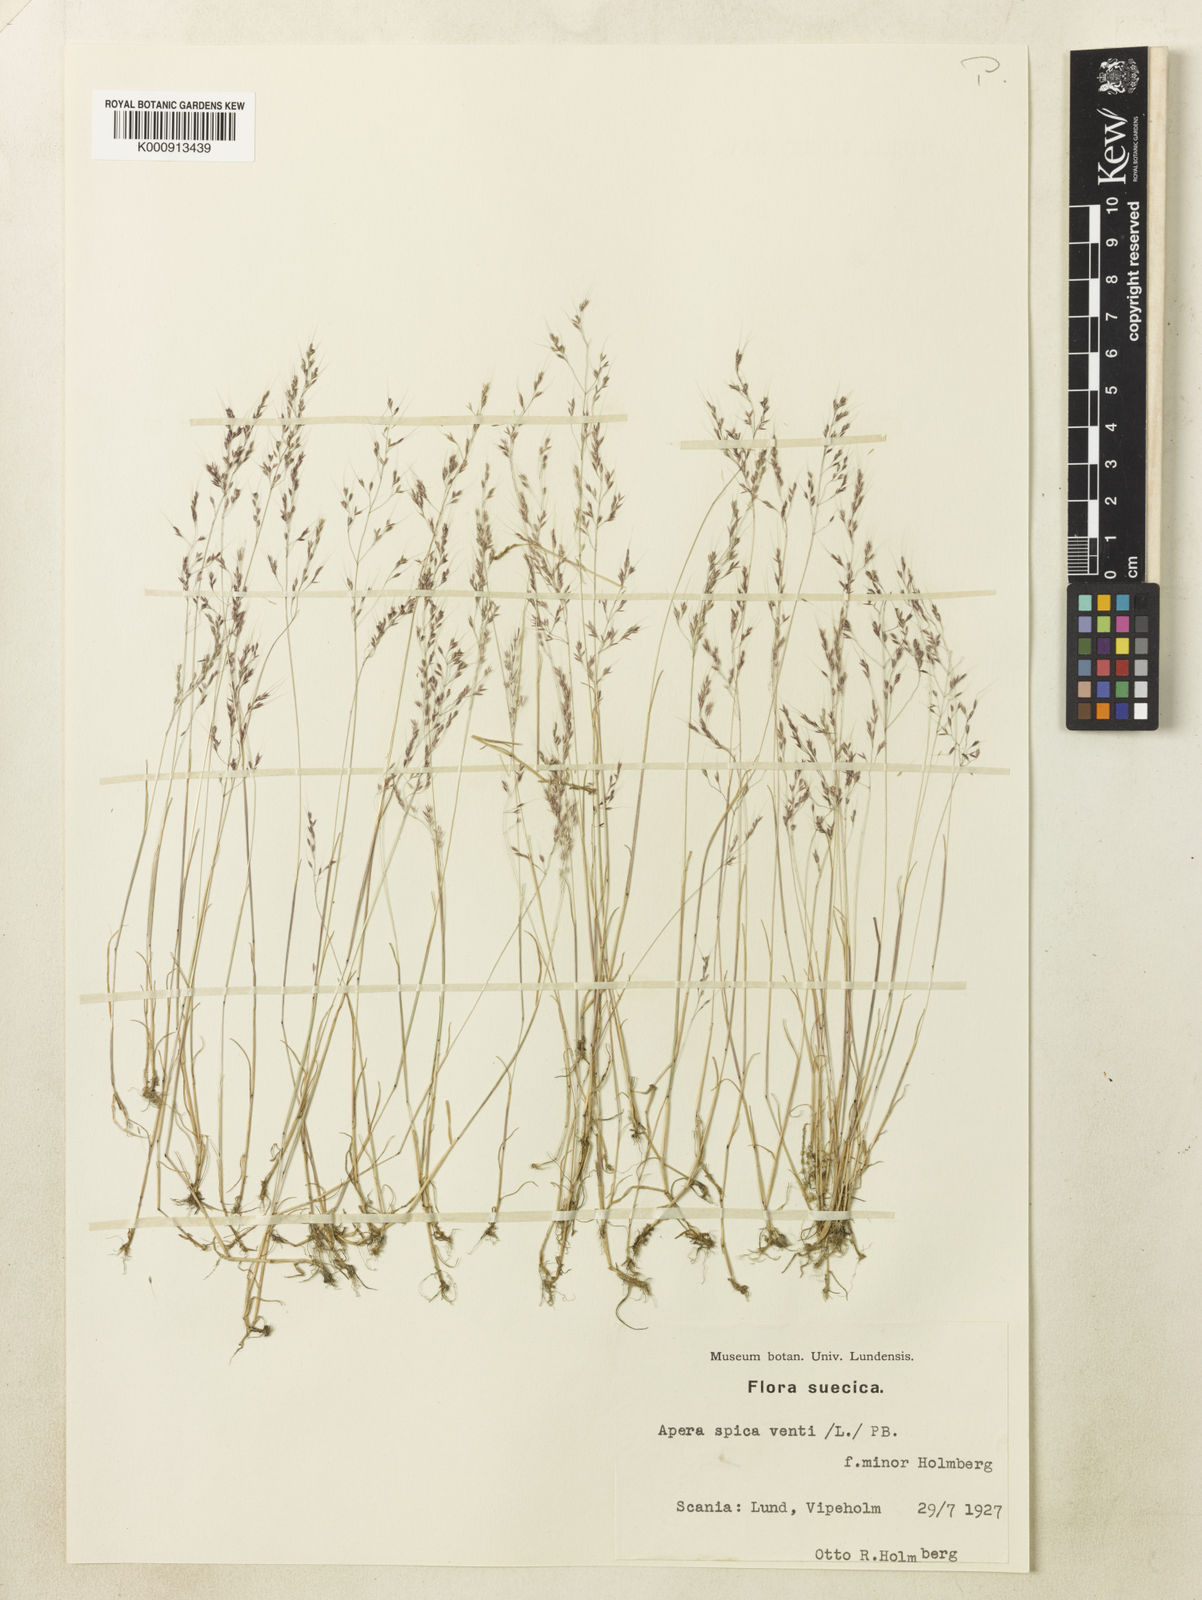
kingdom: Plantae
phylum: Tracheophyta
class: Liliopsida
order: Poales
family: Poaceae
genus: Apera
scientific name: Apera spica-venti
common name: Loose silky-bent
